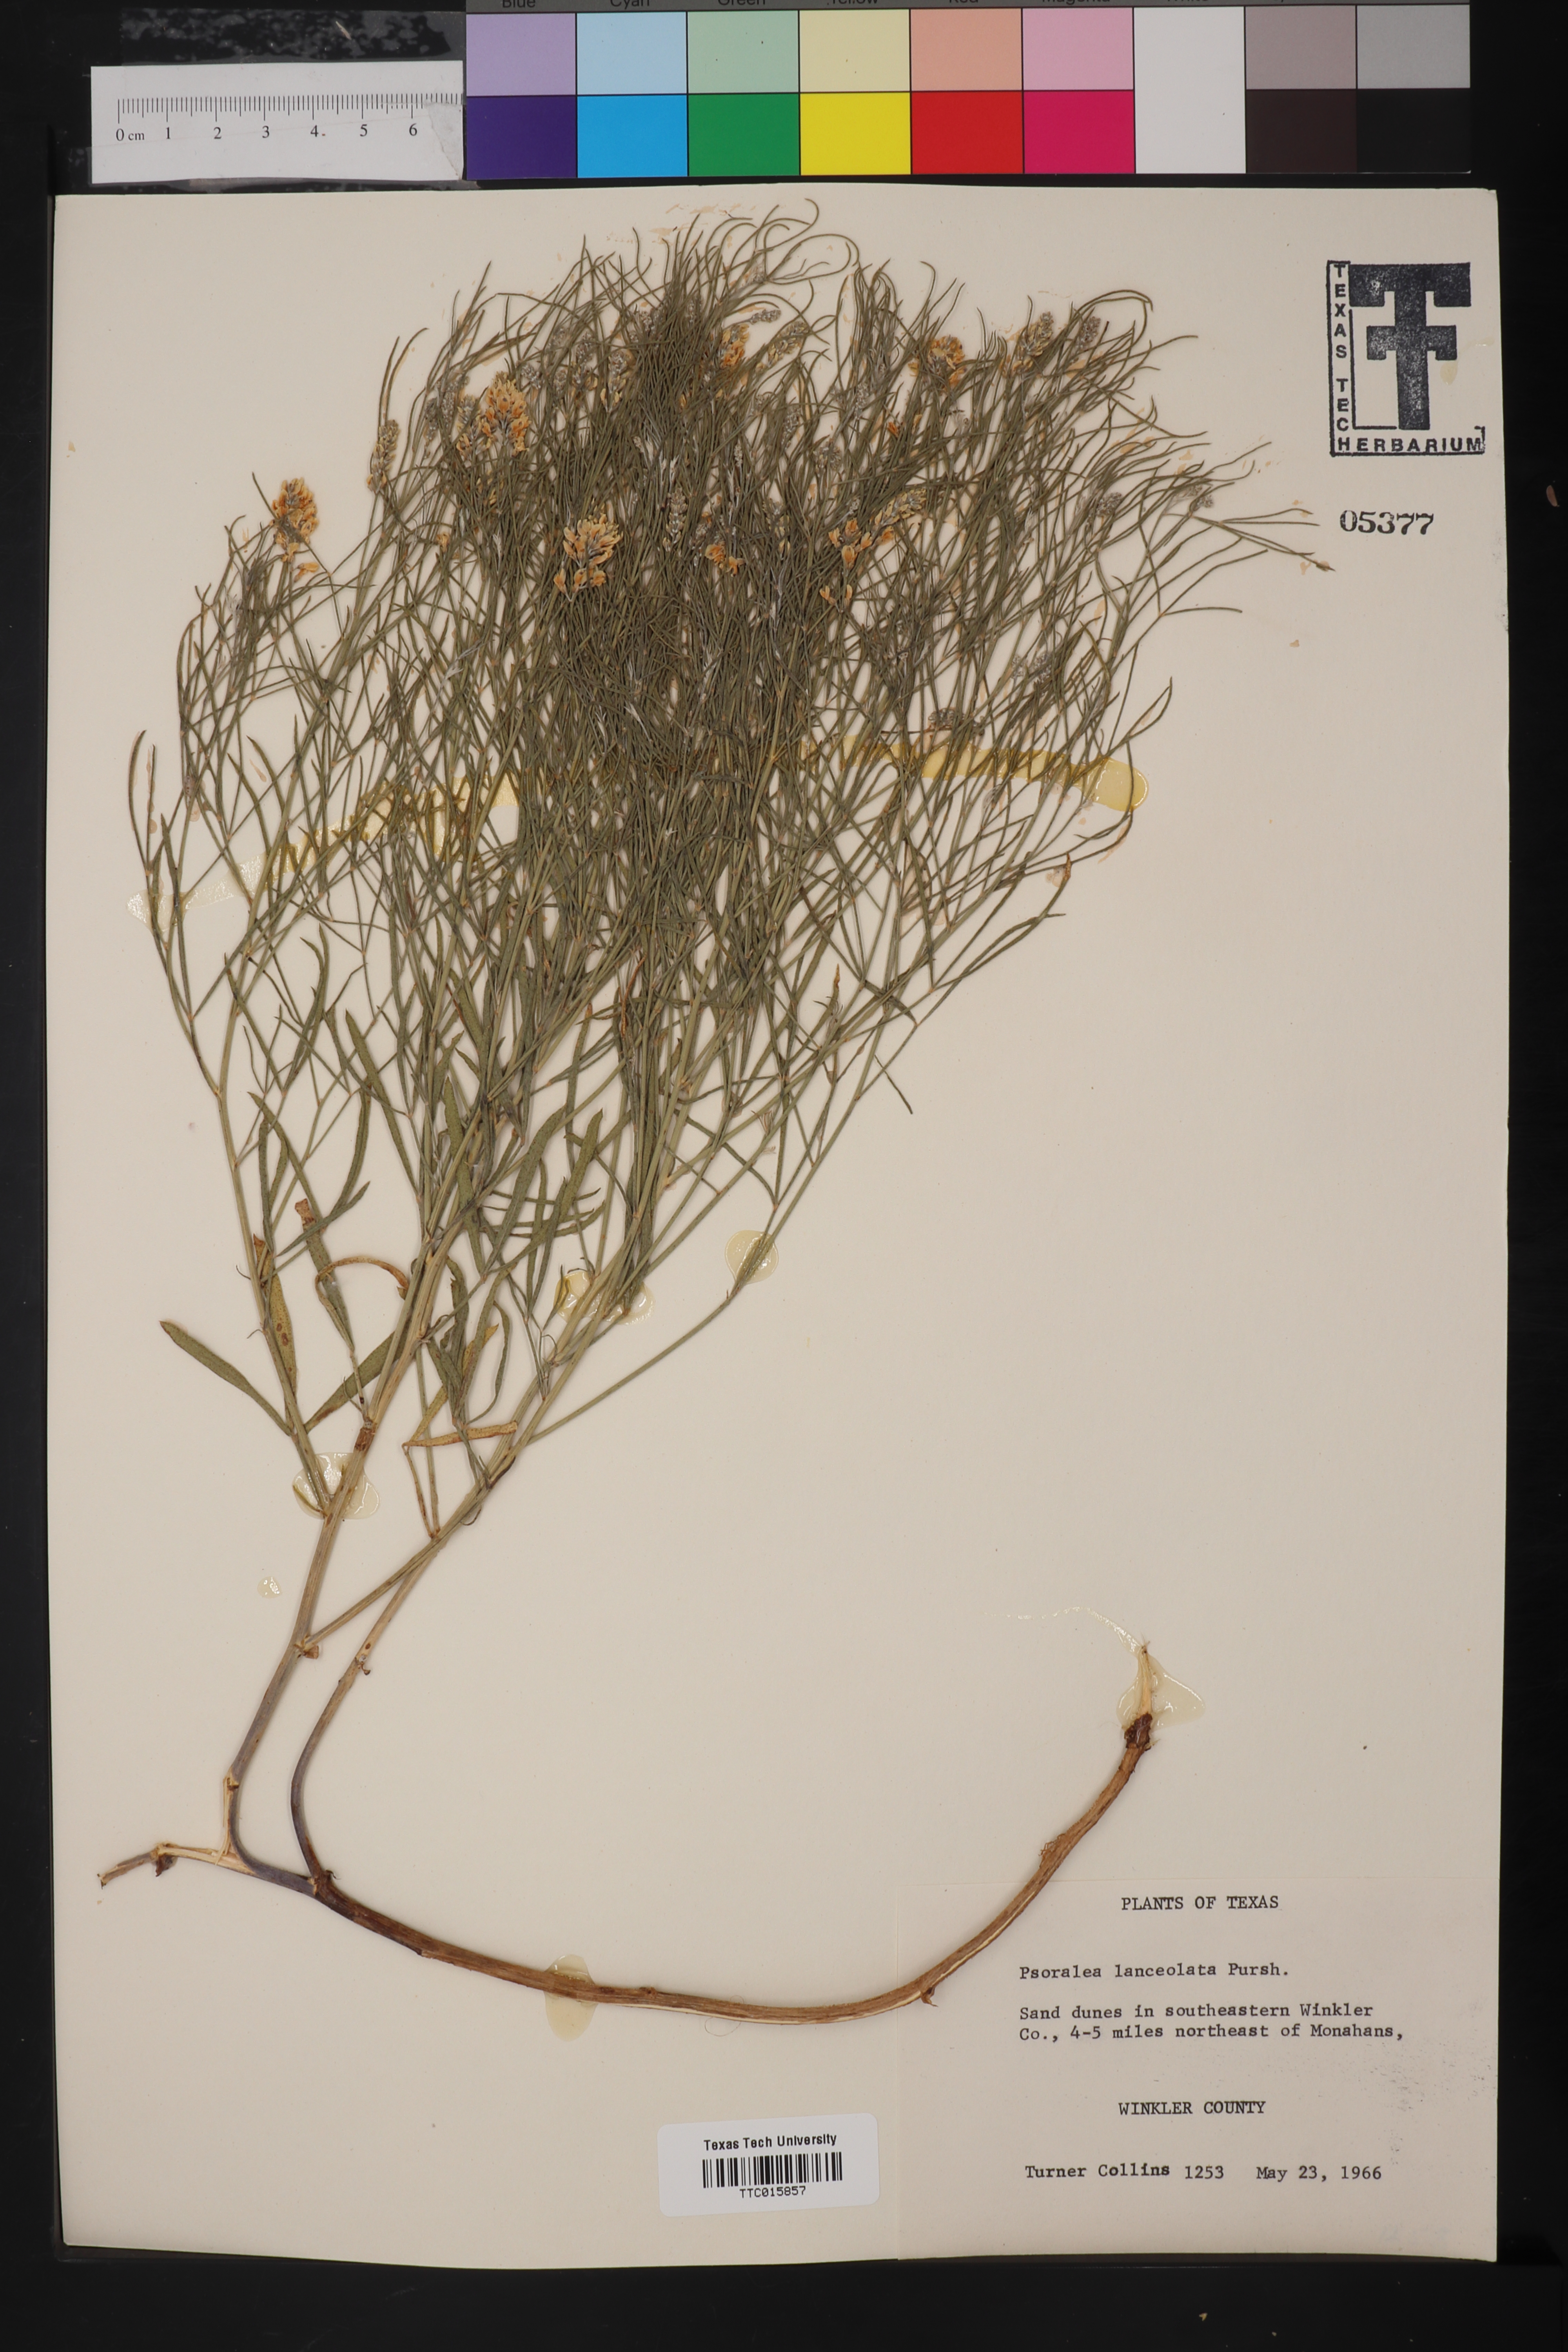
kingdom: Plantae
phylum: Tracheophyta
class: Magnoliopsida
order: Fabales
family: Fabaceae
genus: Ladeania
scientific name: Ladeania lanceolata
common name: Dune scurf-pea
